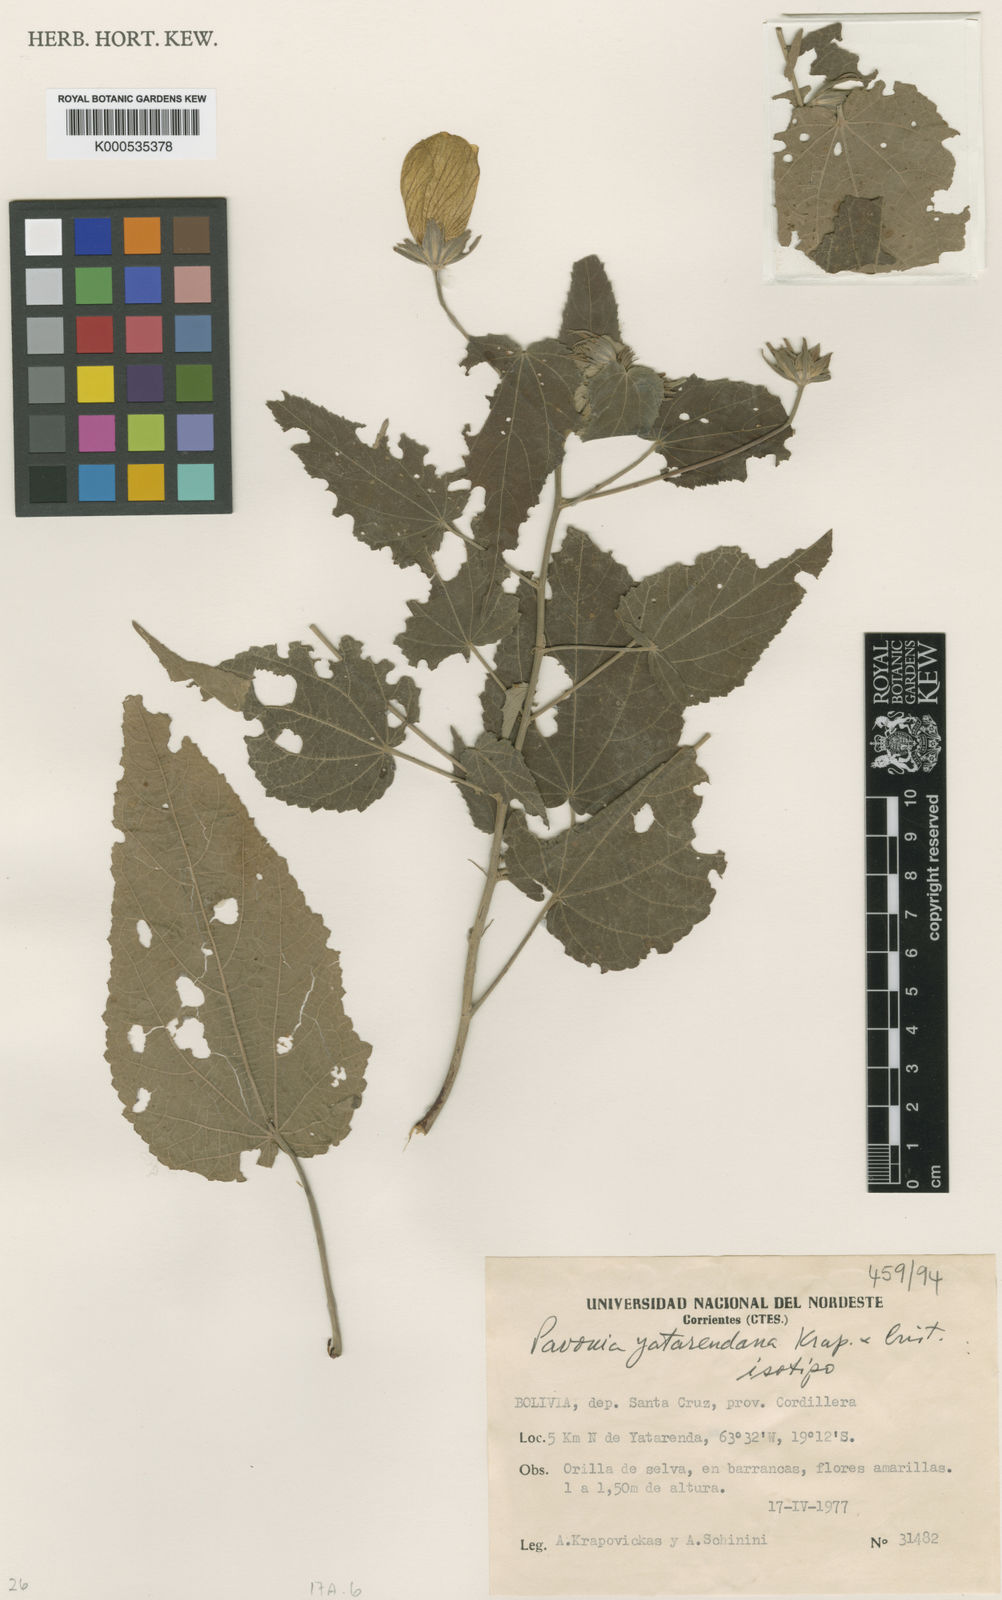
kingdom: Plantae
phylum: Tracheophyta
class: Magnoliopsida
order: Malvales
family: Malvaceae
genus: Pavonia
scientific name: Pavonia
